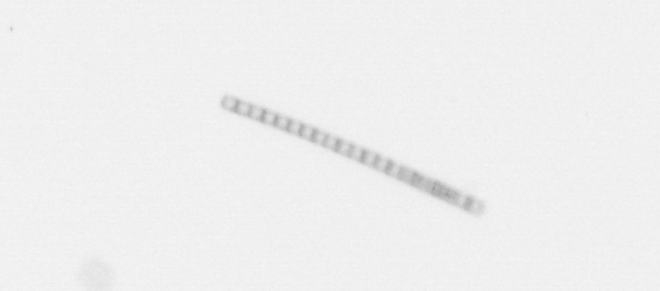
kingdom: Chromista
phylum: Ochrophyta
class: Bacillariophyceae
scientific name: Bacillariophyceae
